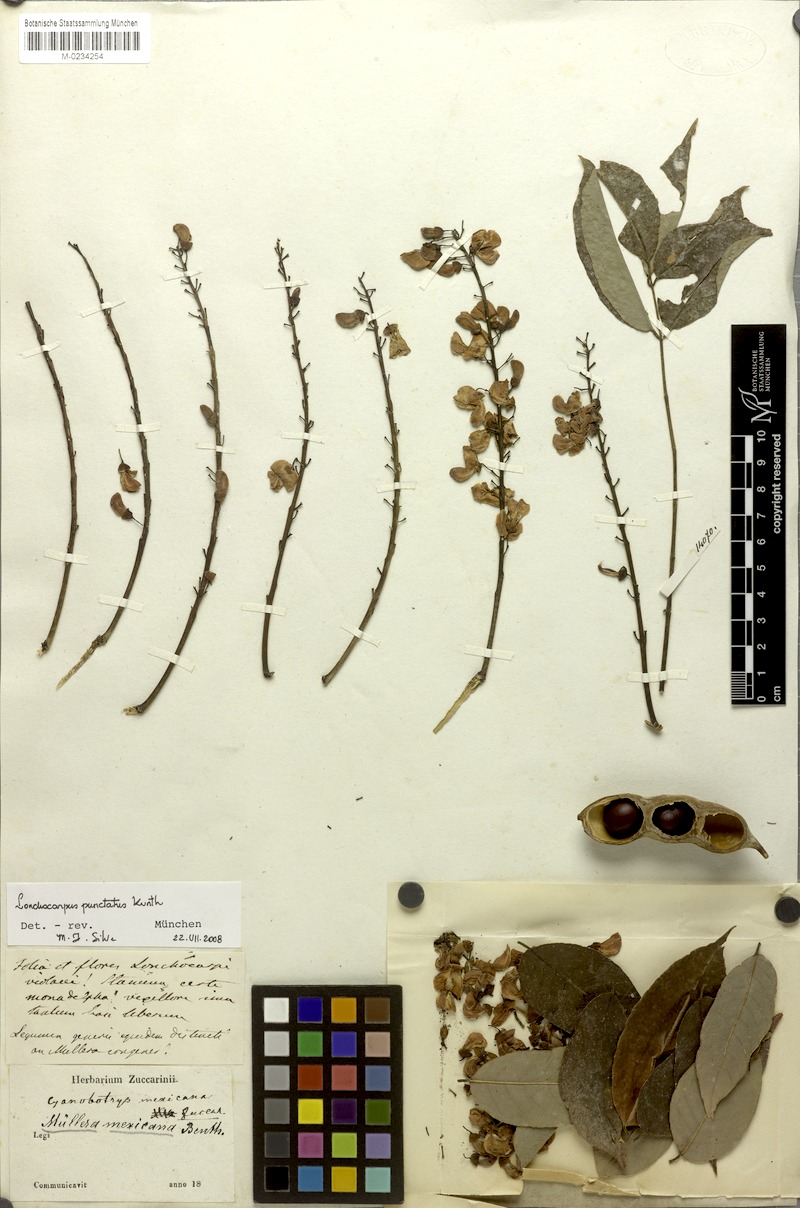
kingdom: Plantae
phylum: Tracheophyta
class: Magnoliopsida
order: Fabales
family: Fabaceae
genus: Lonchocarpus
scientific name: Lonchocarpus longistylus
